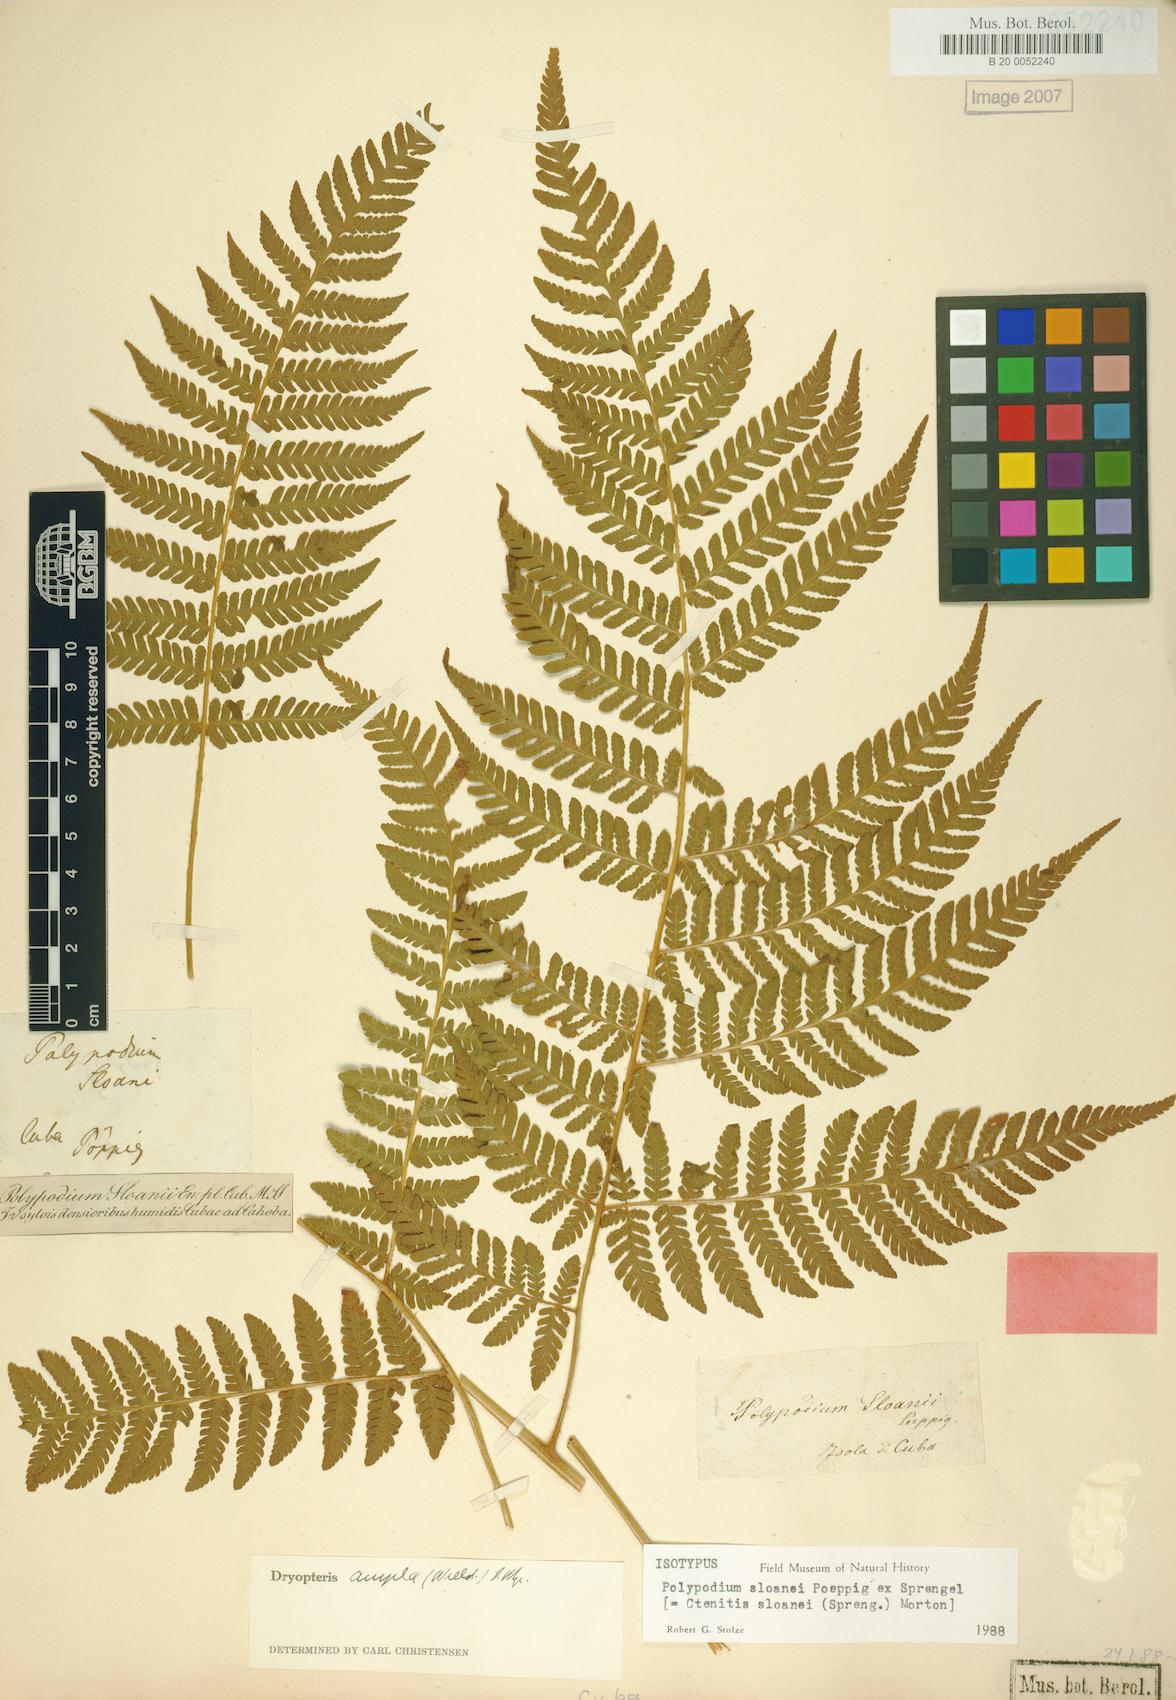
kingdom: Plantae
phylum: Tracheophyta
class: Polypodiopsida
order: Polypodiales
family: Dryopteridaceae
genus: Ctenitis
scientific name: Ctenitis sloanei
